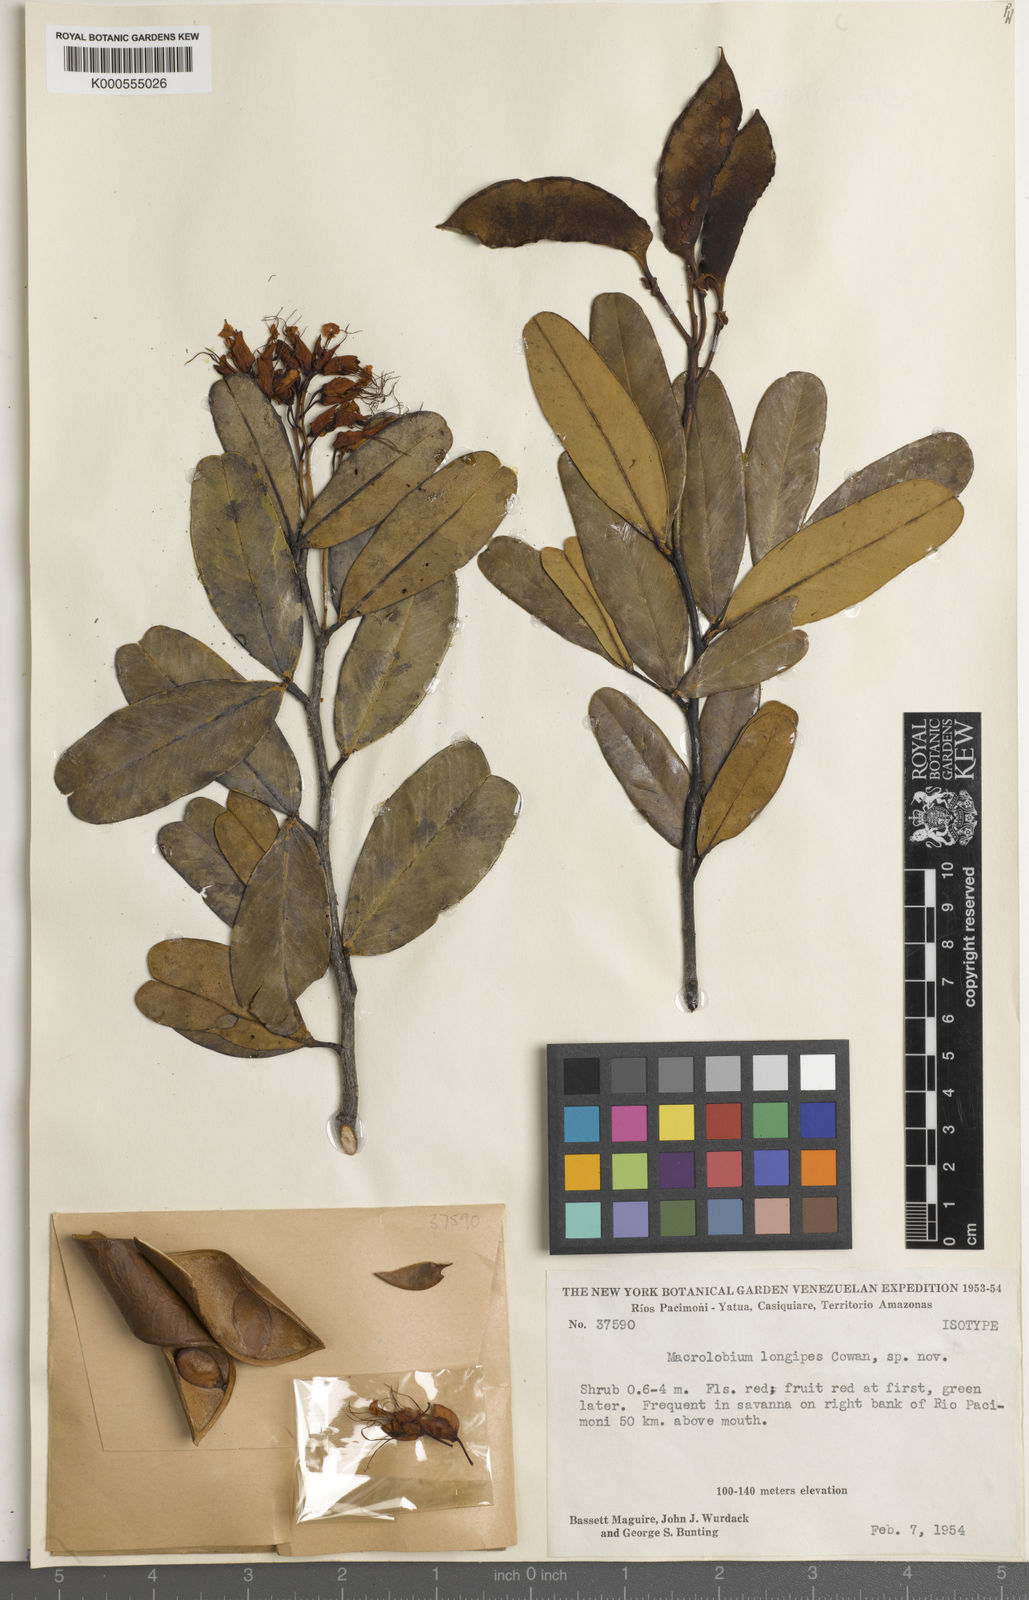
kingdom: Plantae
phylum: Tracheophyta
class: Magnoliopsida
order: Fabales
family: Fabaceae
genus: Macrolobium
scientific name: Macrolobium longipes
